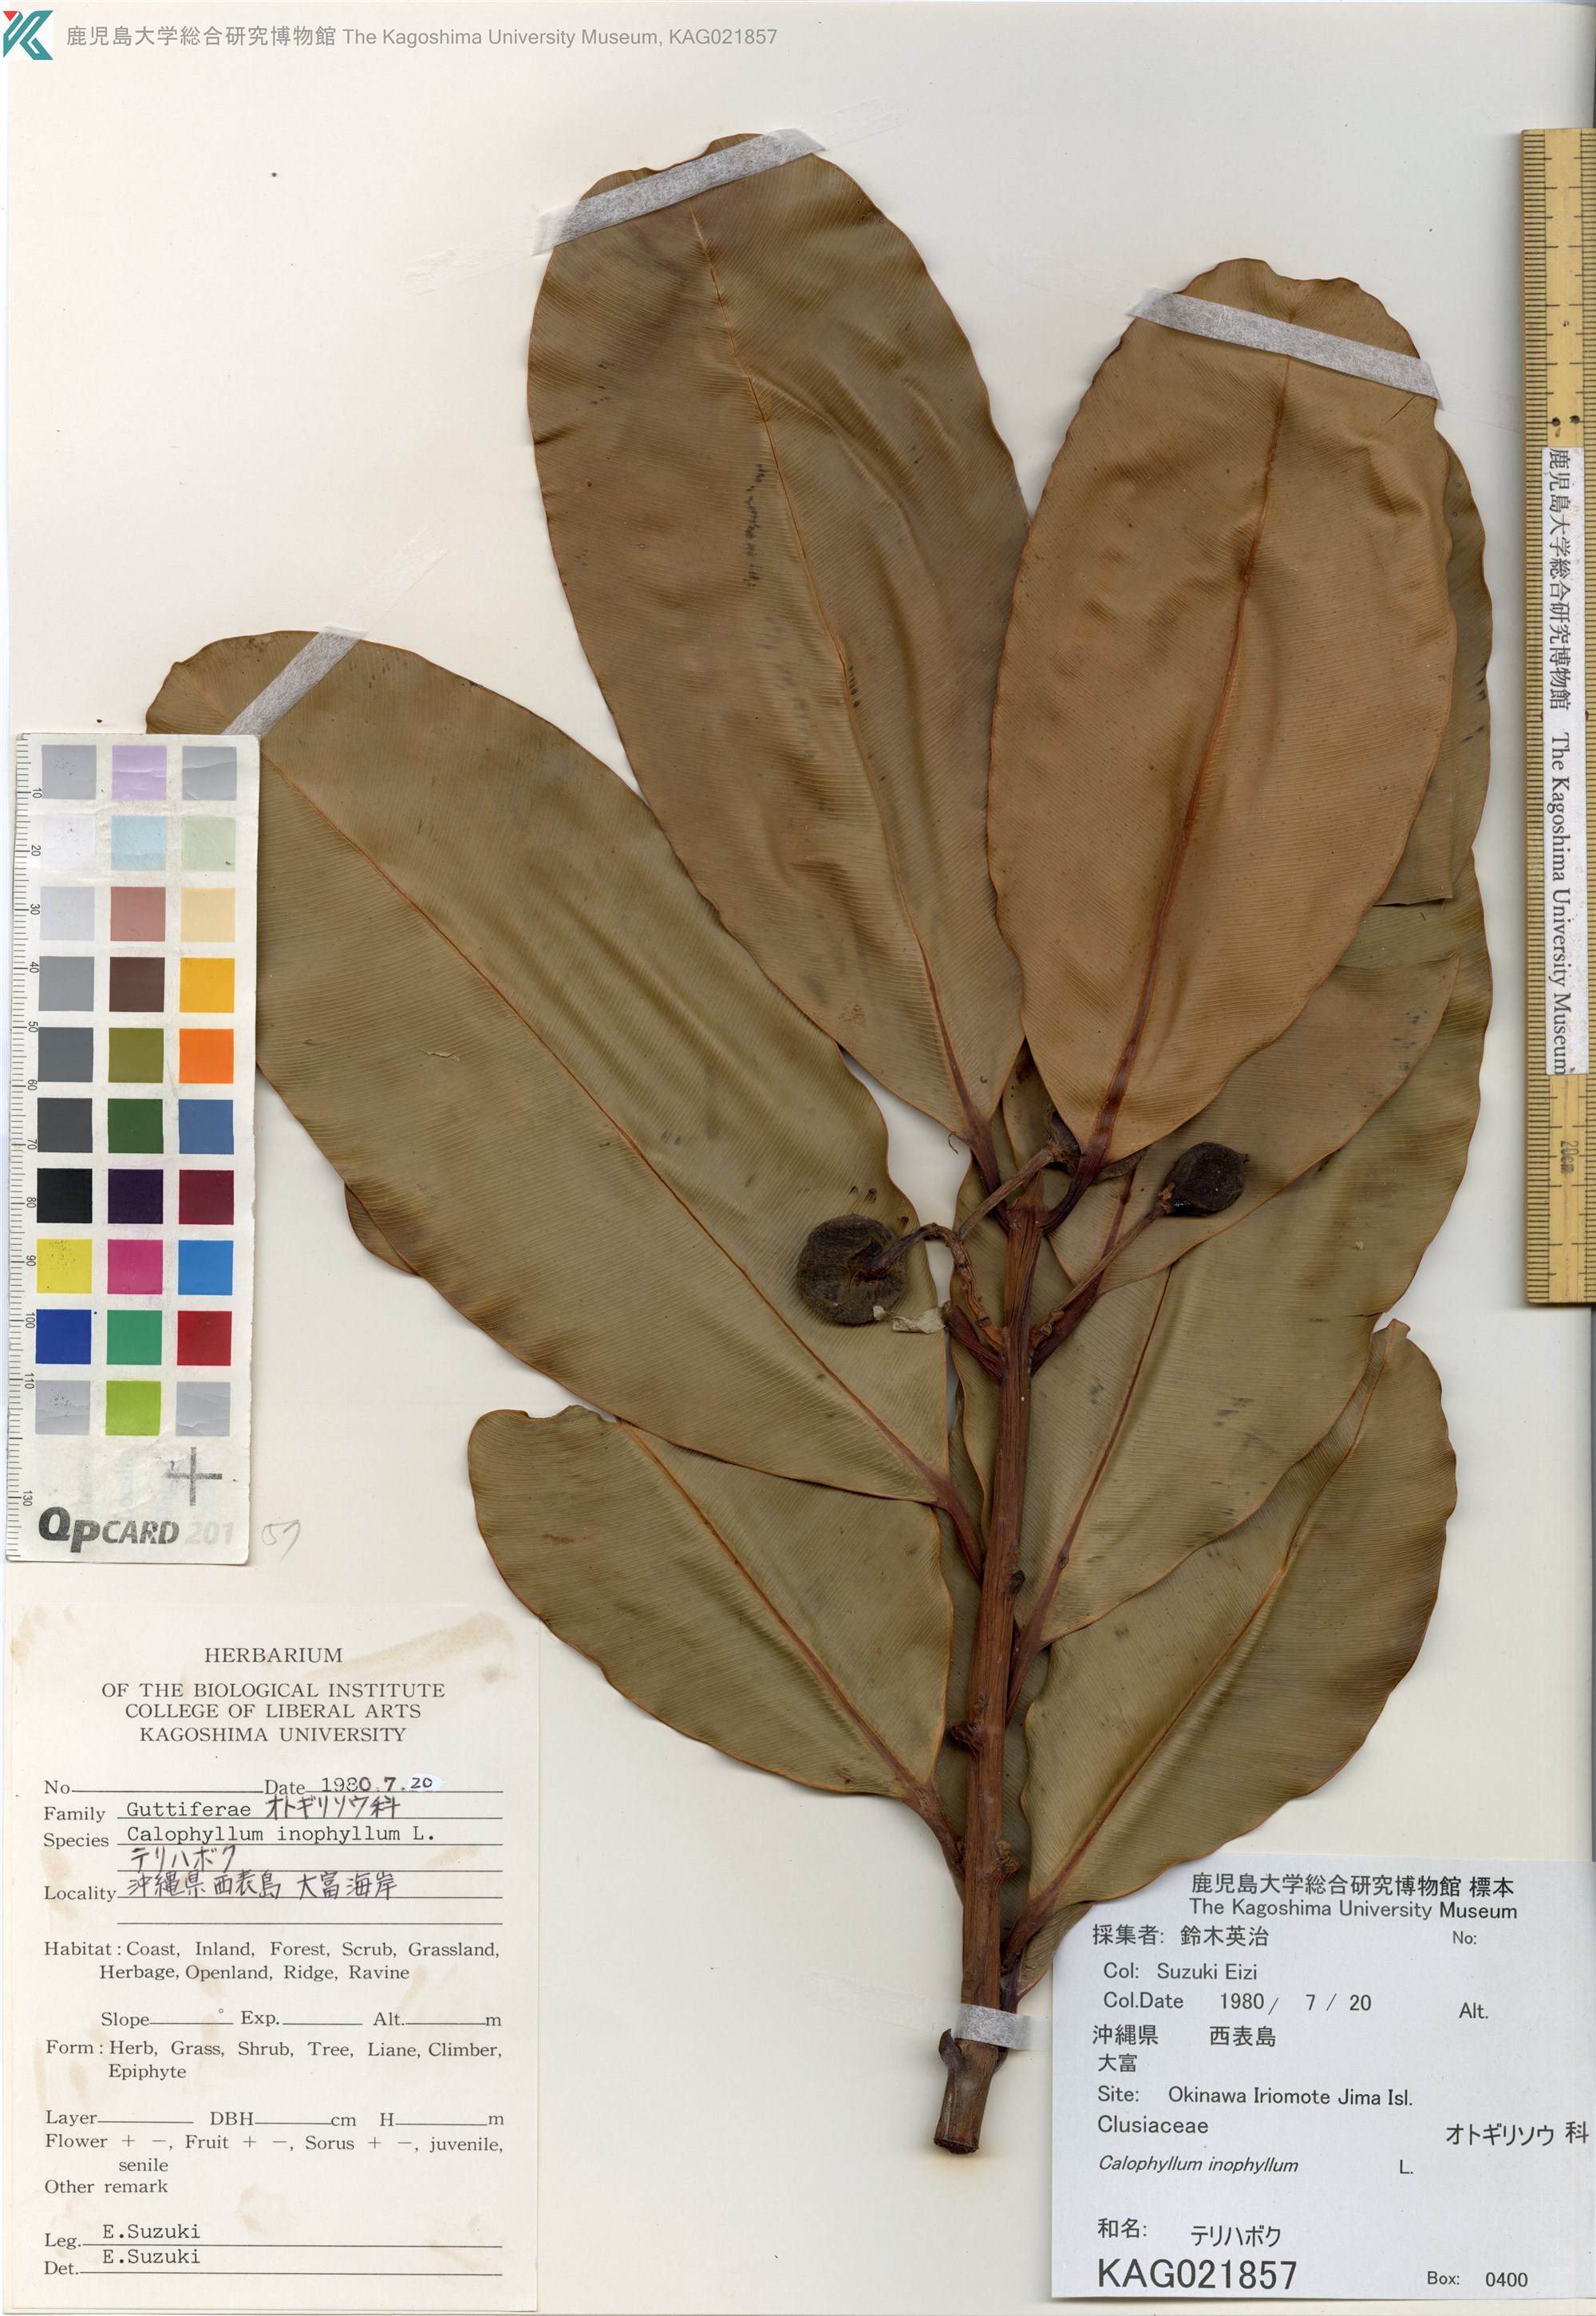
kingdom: Plantae
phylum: Tracheophyta
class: Magnoliopsida
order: Malpighiales
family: Calophyllaceae
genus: Calophyllum
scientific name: Calophyllum inophyllum
